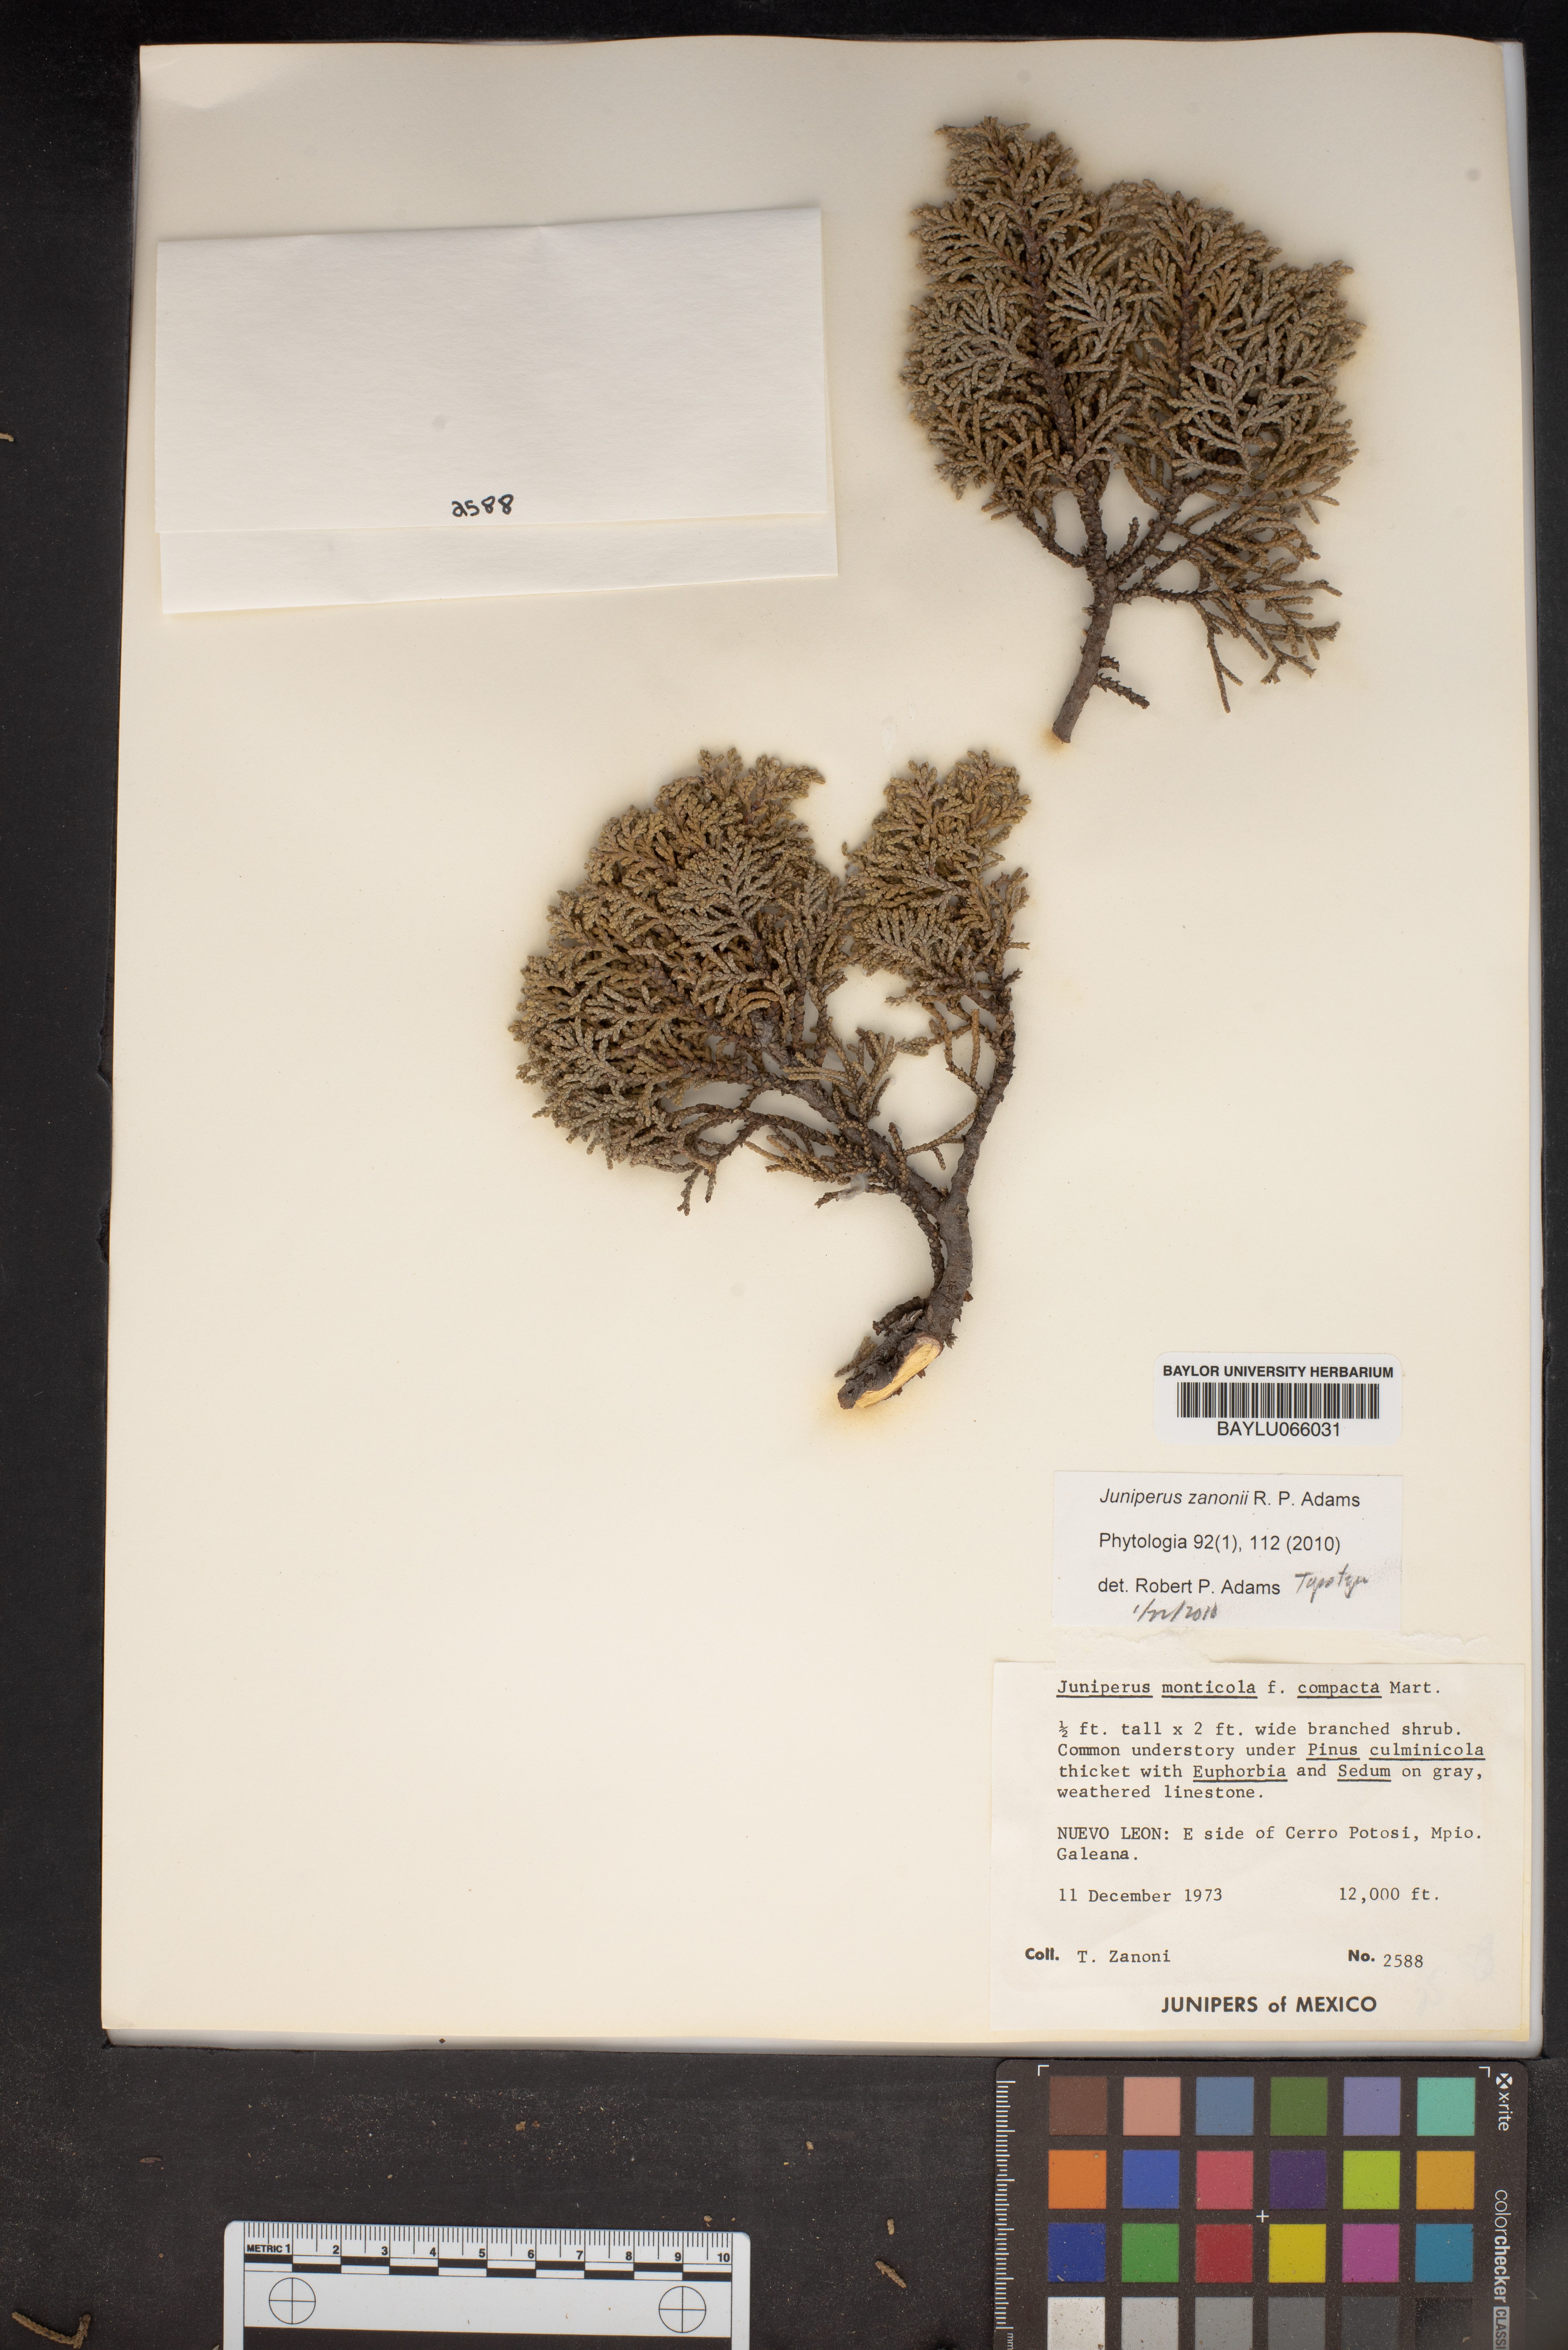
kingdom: Plantae
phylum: Tracheophyta
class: Pinopsida
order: Pinales
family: Cupressaceae
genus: Juniperus
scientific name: Juniperus monticola
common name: Mexican juniper
